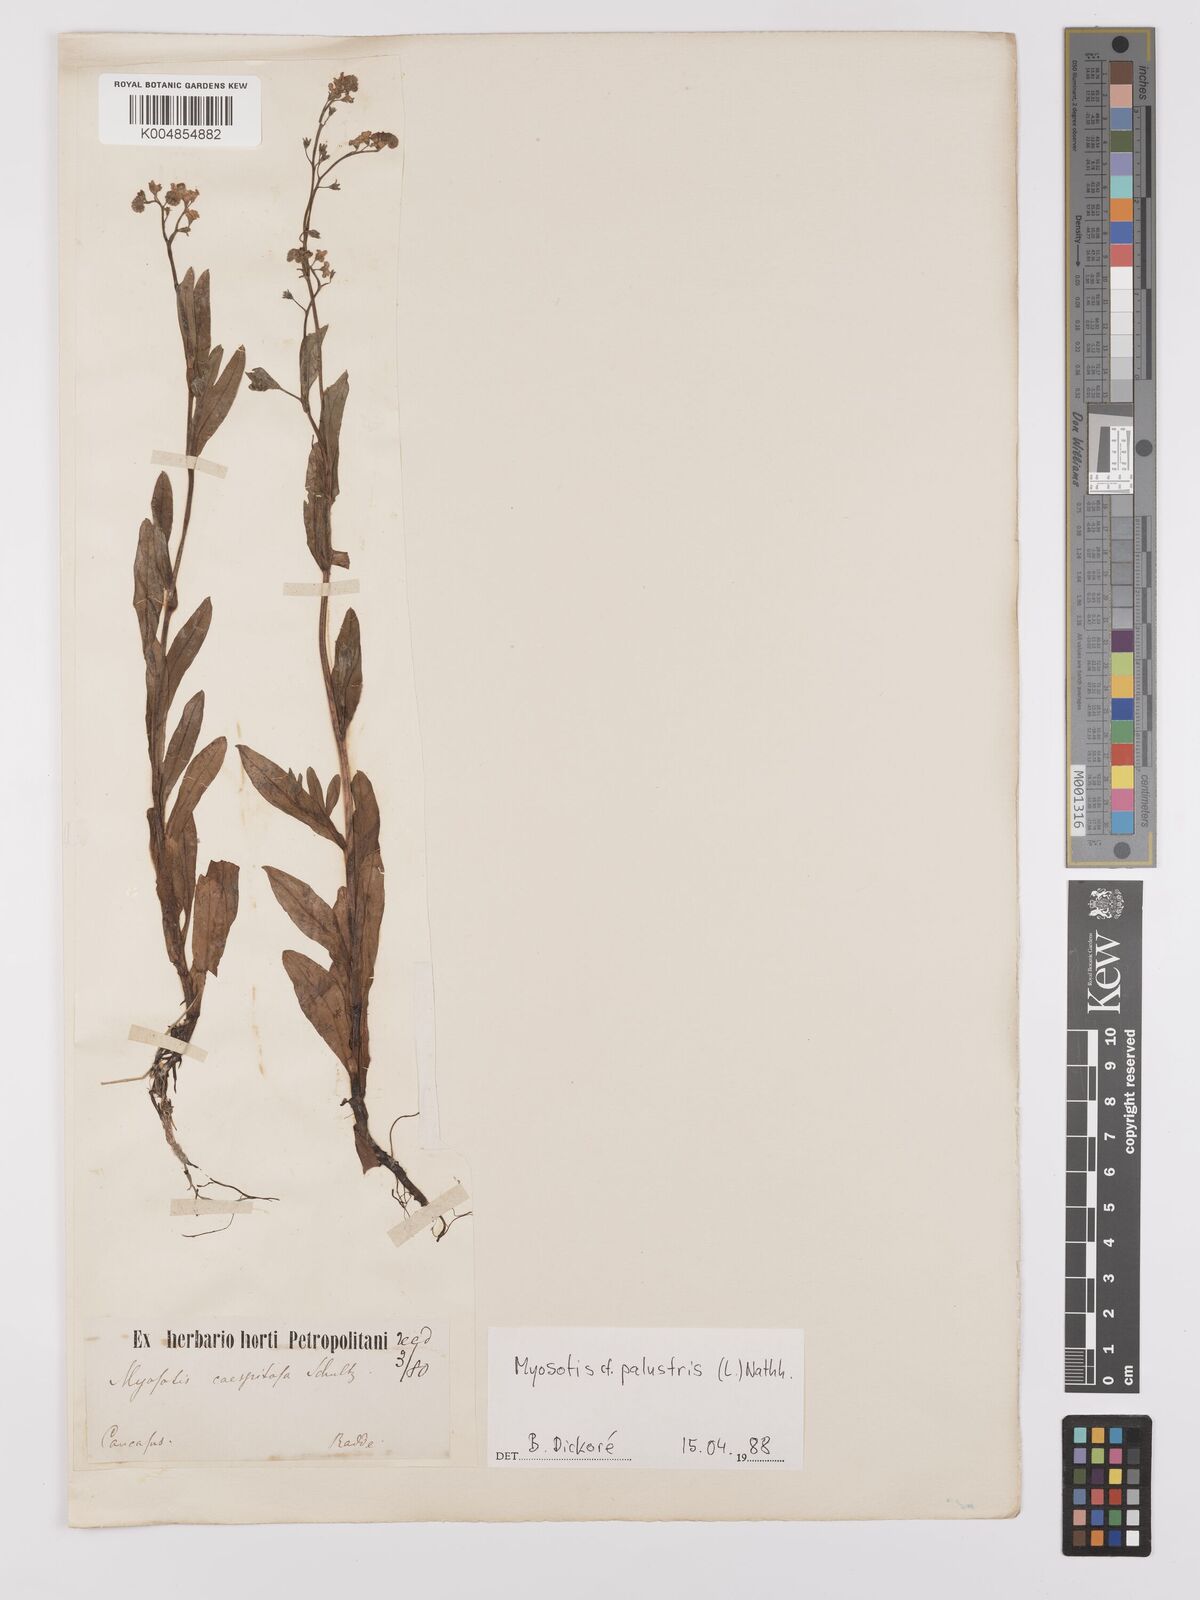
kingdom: Plantae
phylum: Tracheophyta
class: Magnoliopsida
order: Boraginales
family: Boraginaceae
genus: Myosotis
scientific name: Myosotis scorpioides
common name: Water forget-me-not
